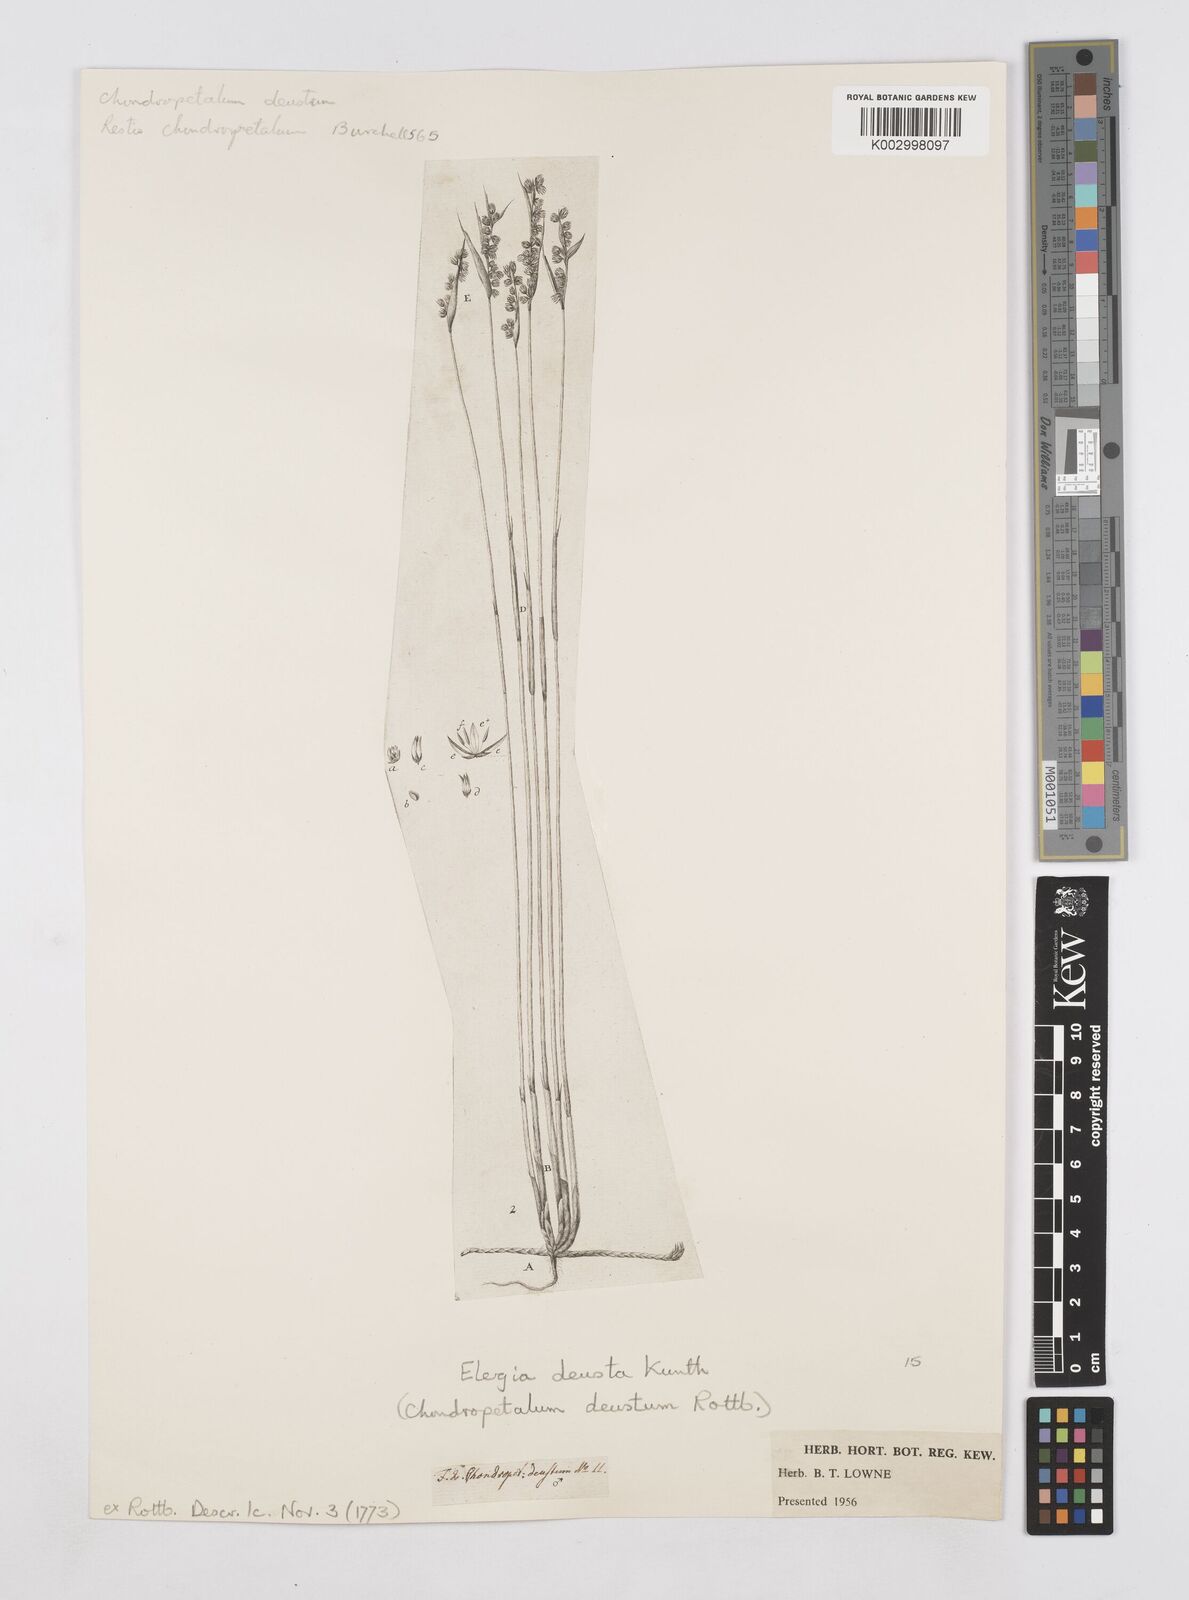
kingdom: Plantae
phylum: Tracheophyta
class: Liliopsida
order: Poales
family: Restionaceae
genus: Elegia
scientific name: Elegia deusta
